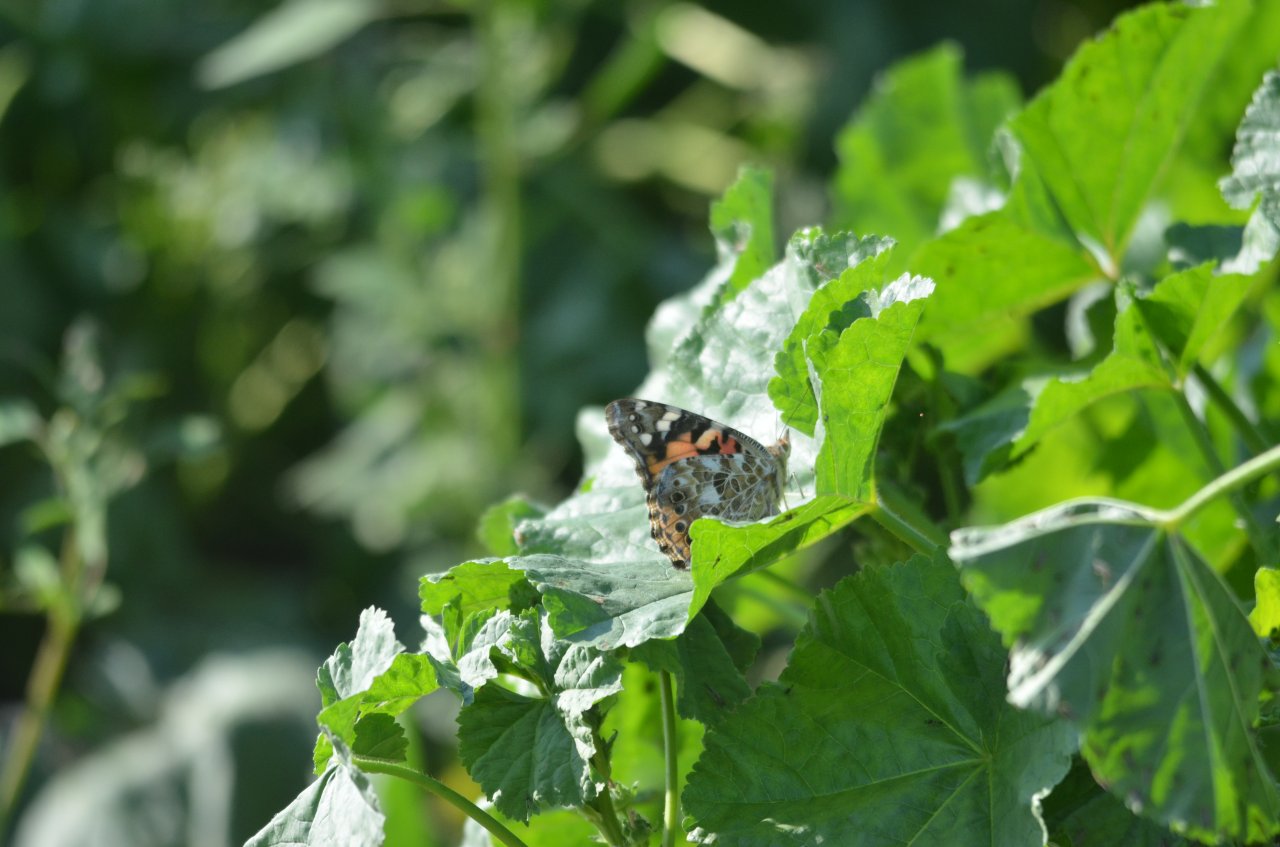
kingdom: Animalia
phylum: Arthropoda
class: Insecta
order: Lepidoptera
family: Nymphalidae
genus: Vanessa
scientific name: Vanessa cardui
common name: Painted Lady
